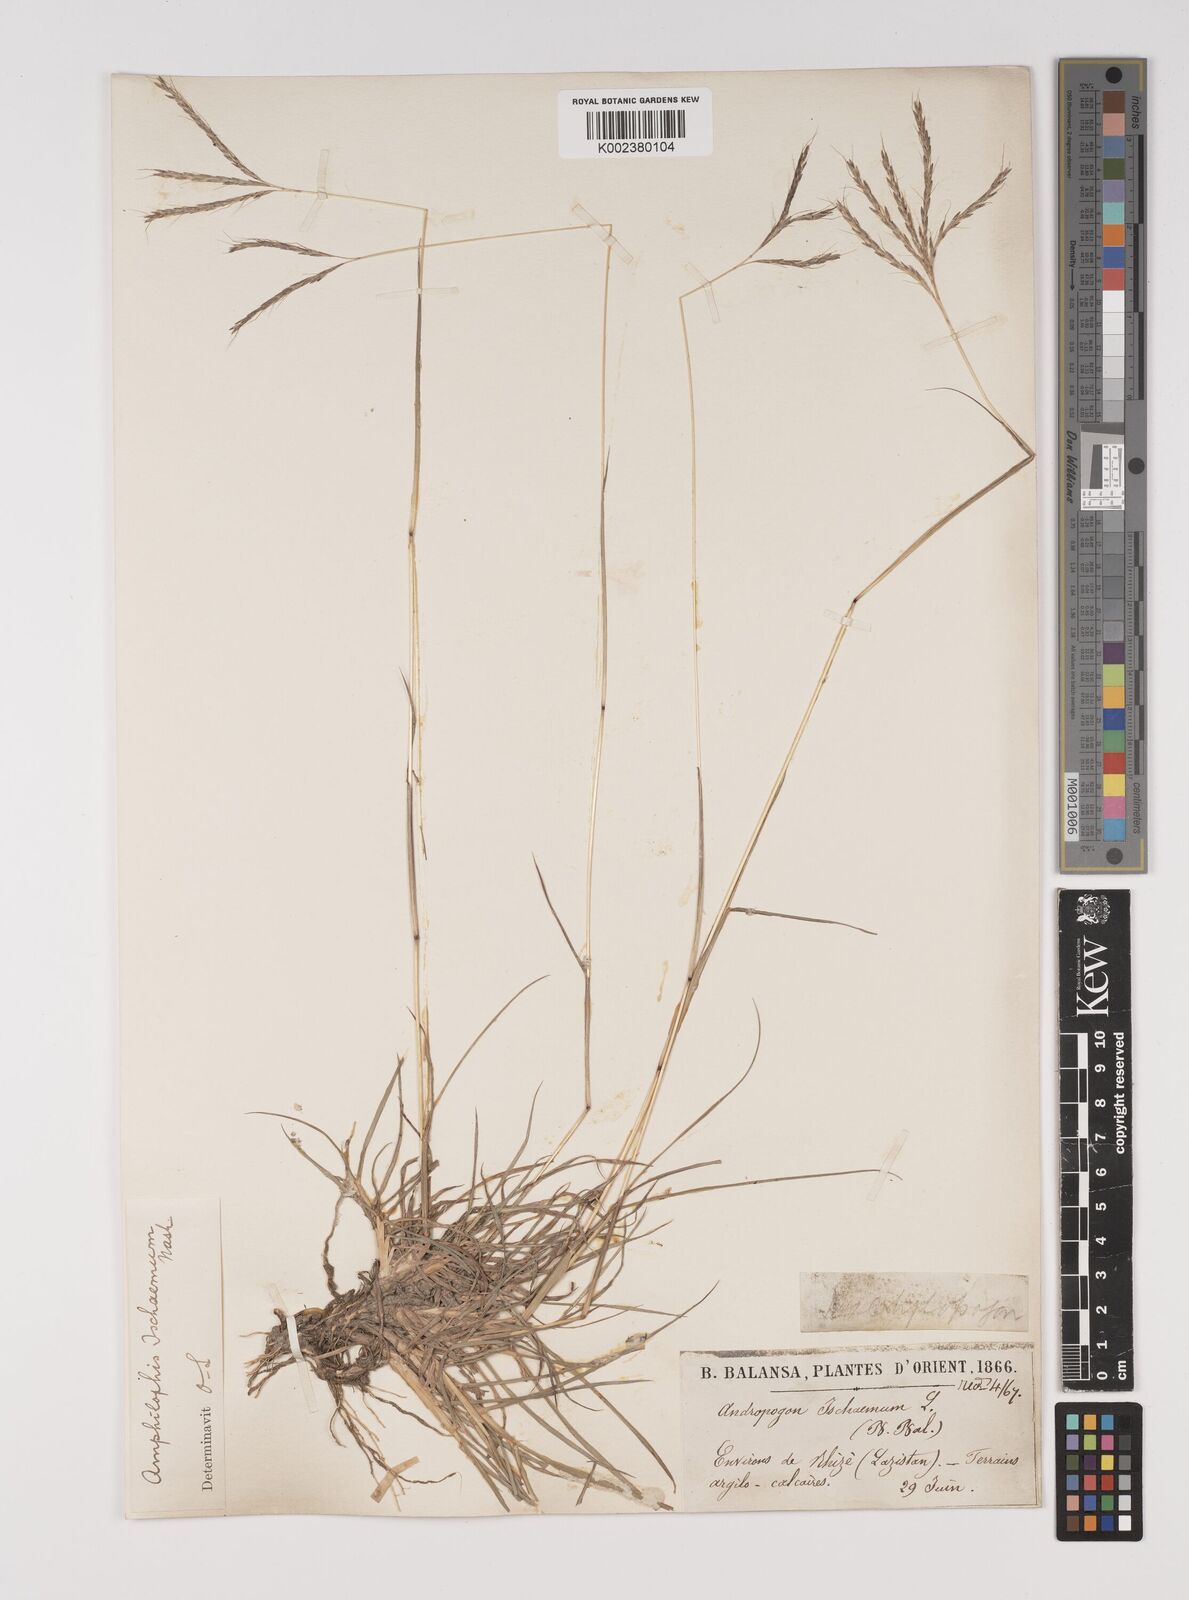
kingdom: Plantae
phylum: Tracheophyta
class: Liliopsida
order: Poales
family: Poaceae
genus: Bothriochloa
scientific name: Bothriochloa ischaemum
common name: Yellow bluestem
